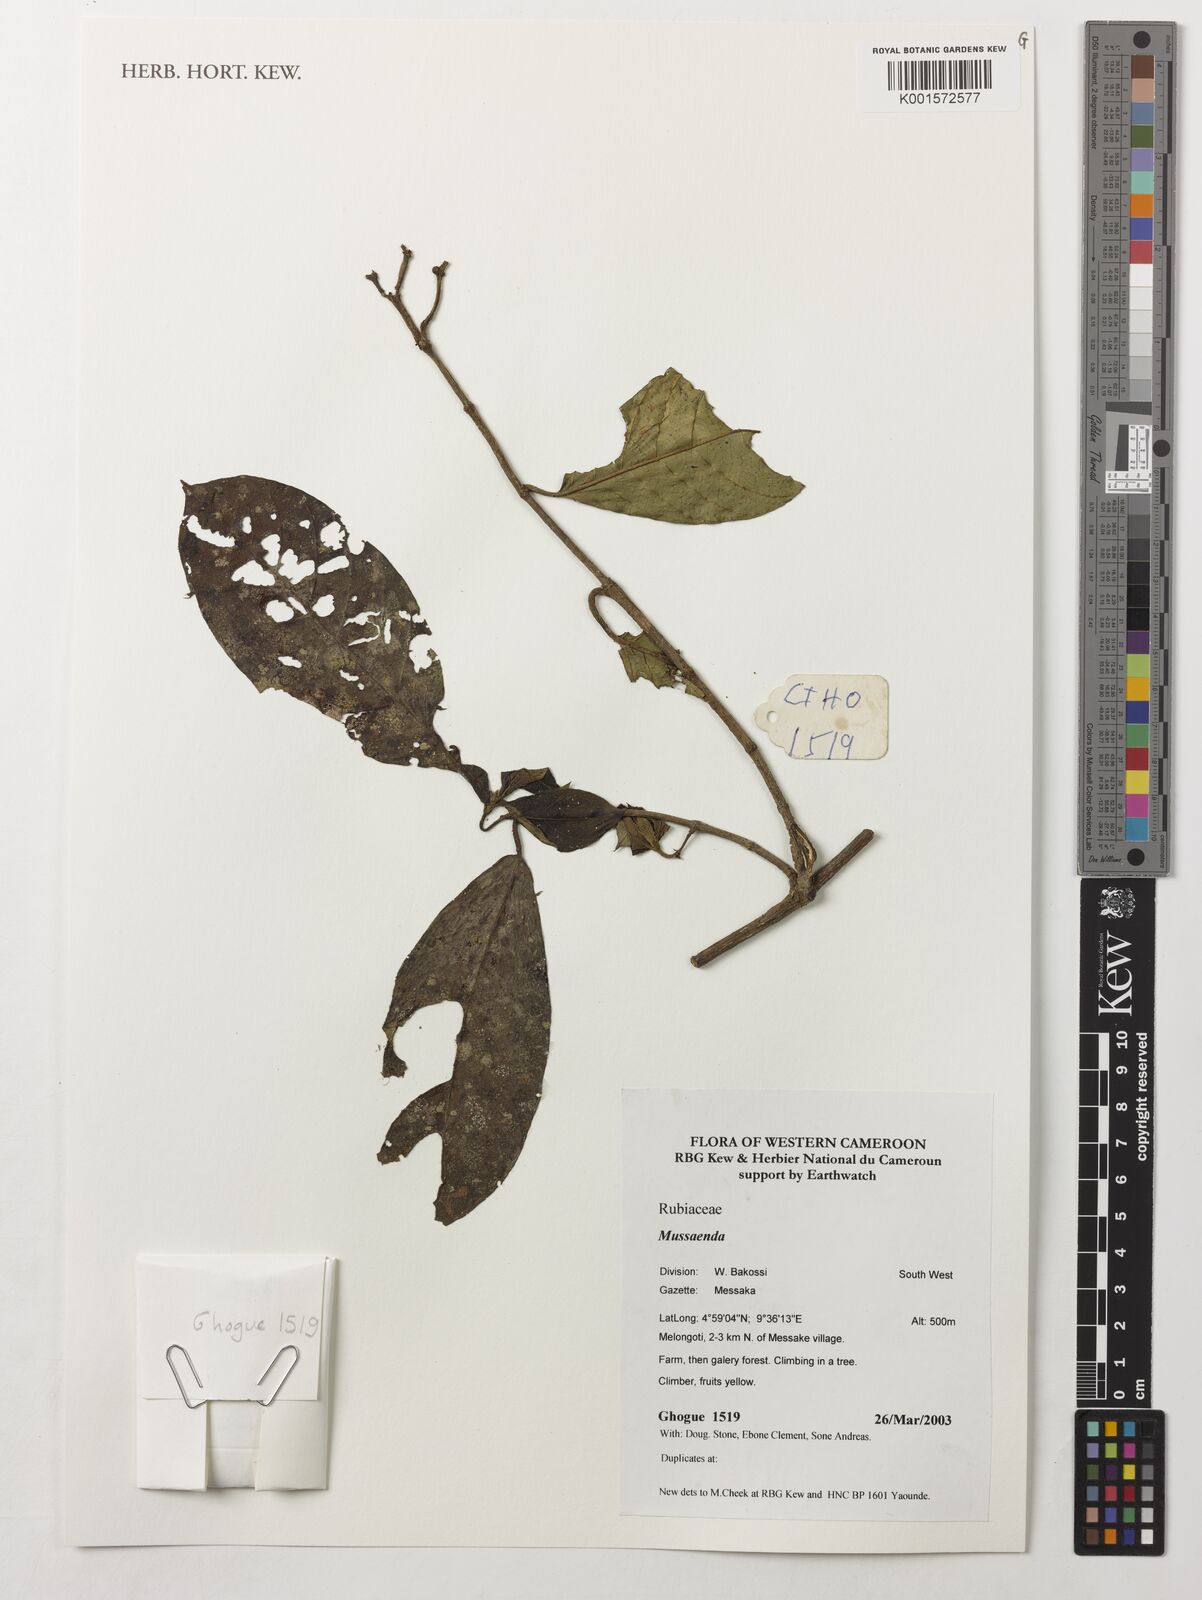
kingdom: Plantae
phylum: Tracheophyta
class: Magnoliopsida
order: Gentianales
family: Rubiaceae
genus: Mussaenda
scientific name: Mussaenda
